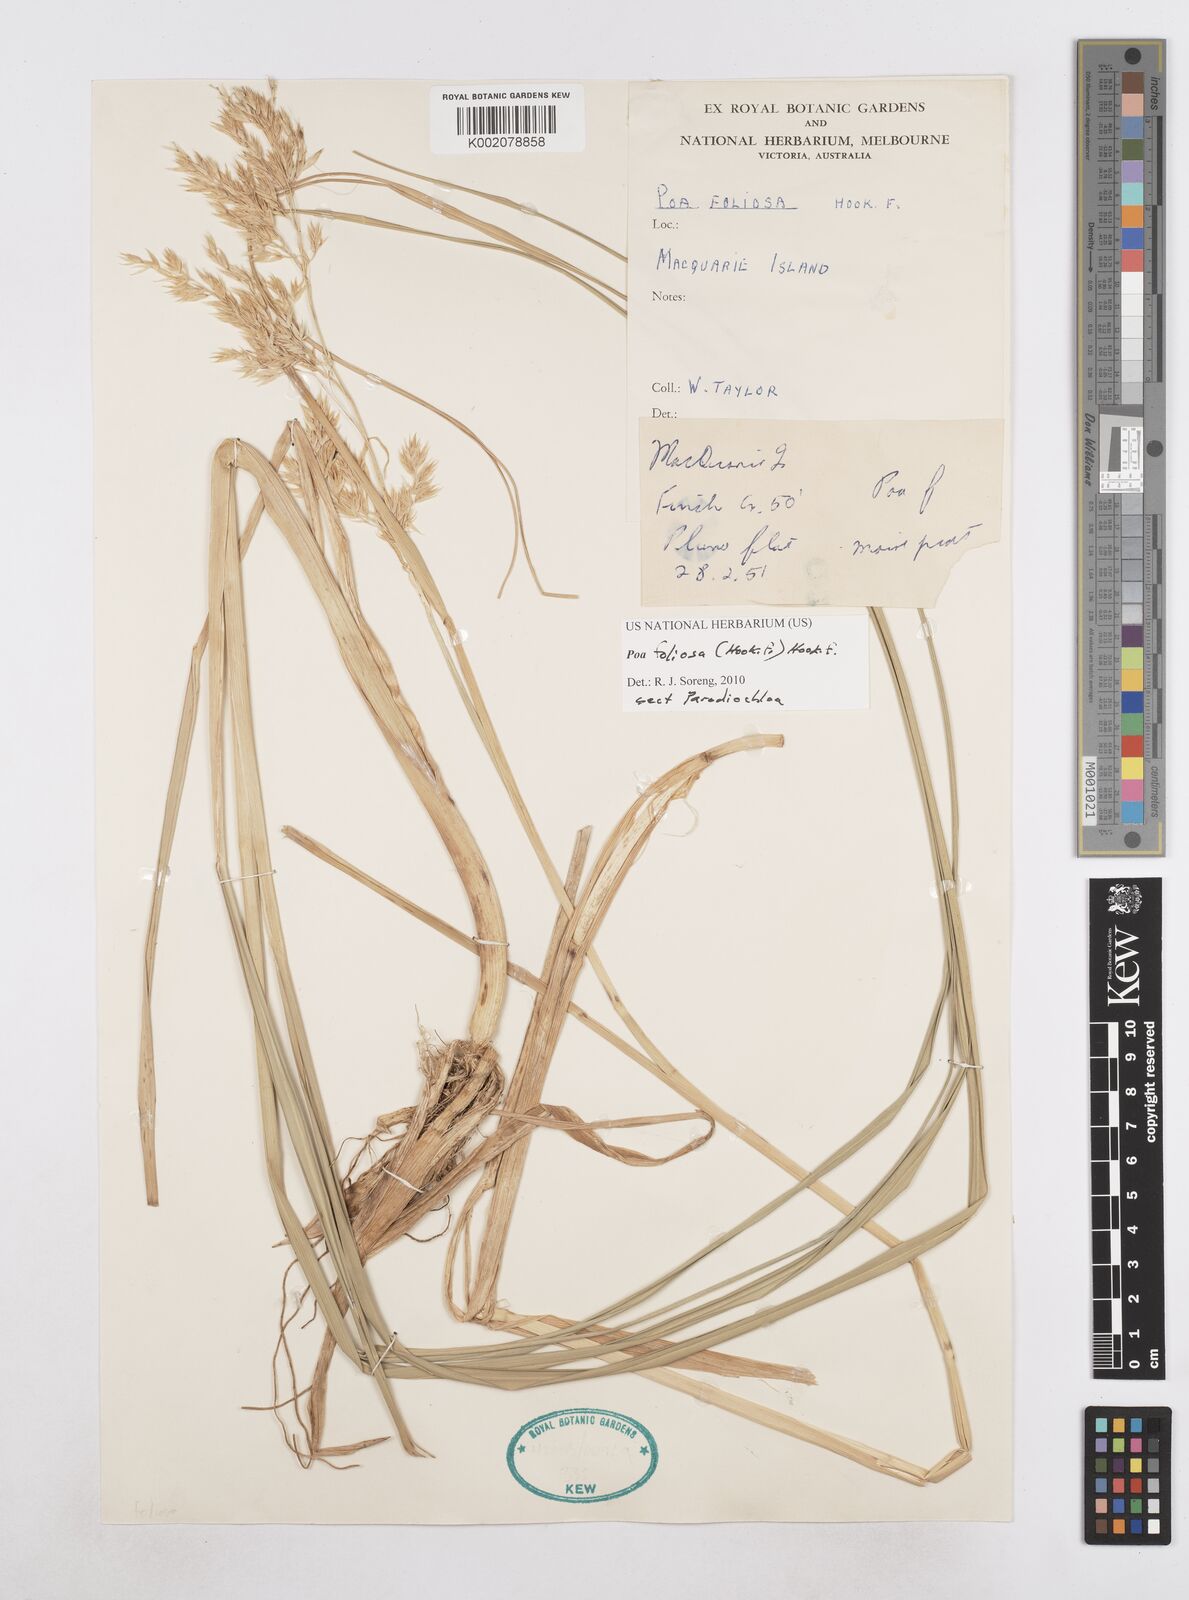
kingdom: Plantae
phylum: Tracheophyta
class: Liliopsida
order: Poales
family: Poaceae
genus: Poa
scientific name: Poa foliosa
